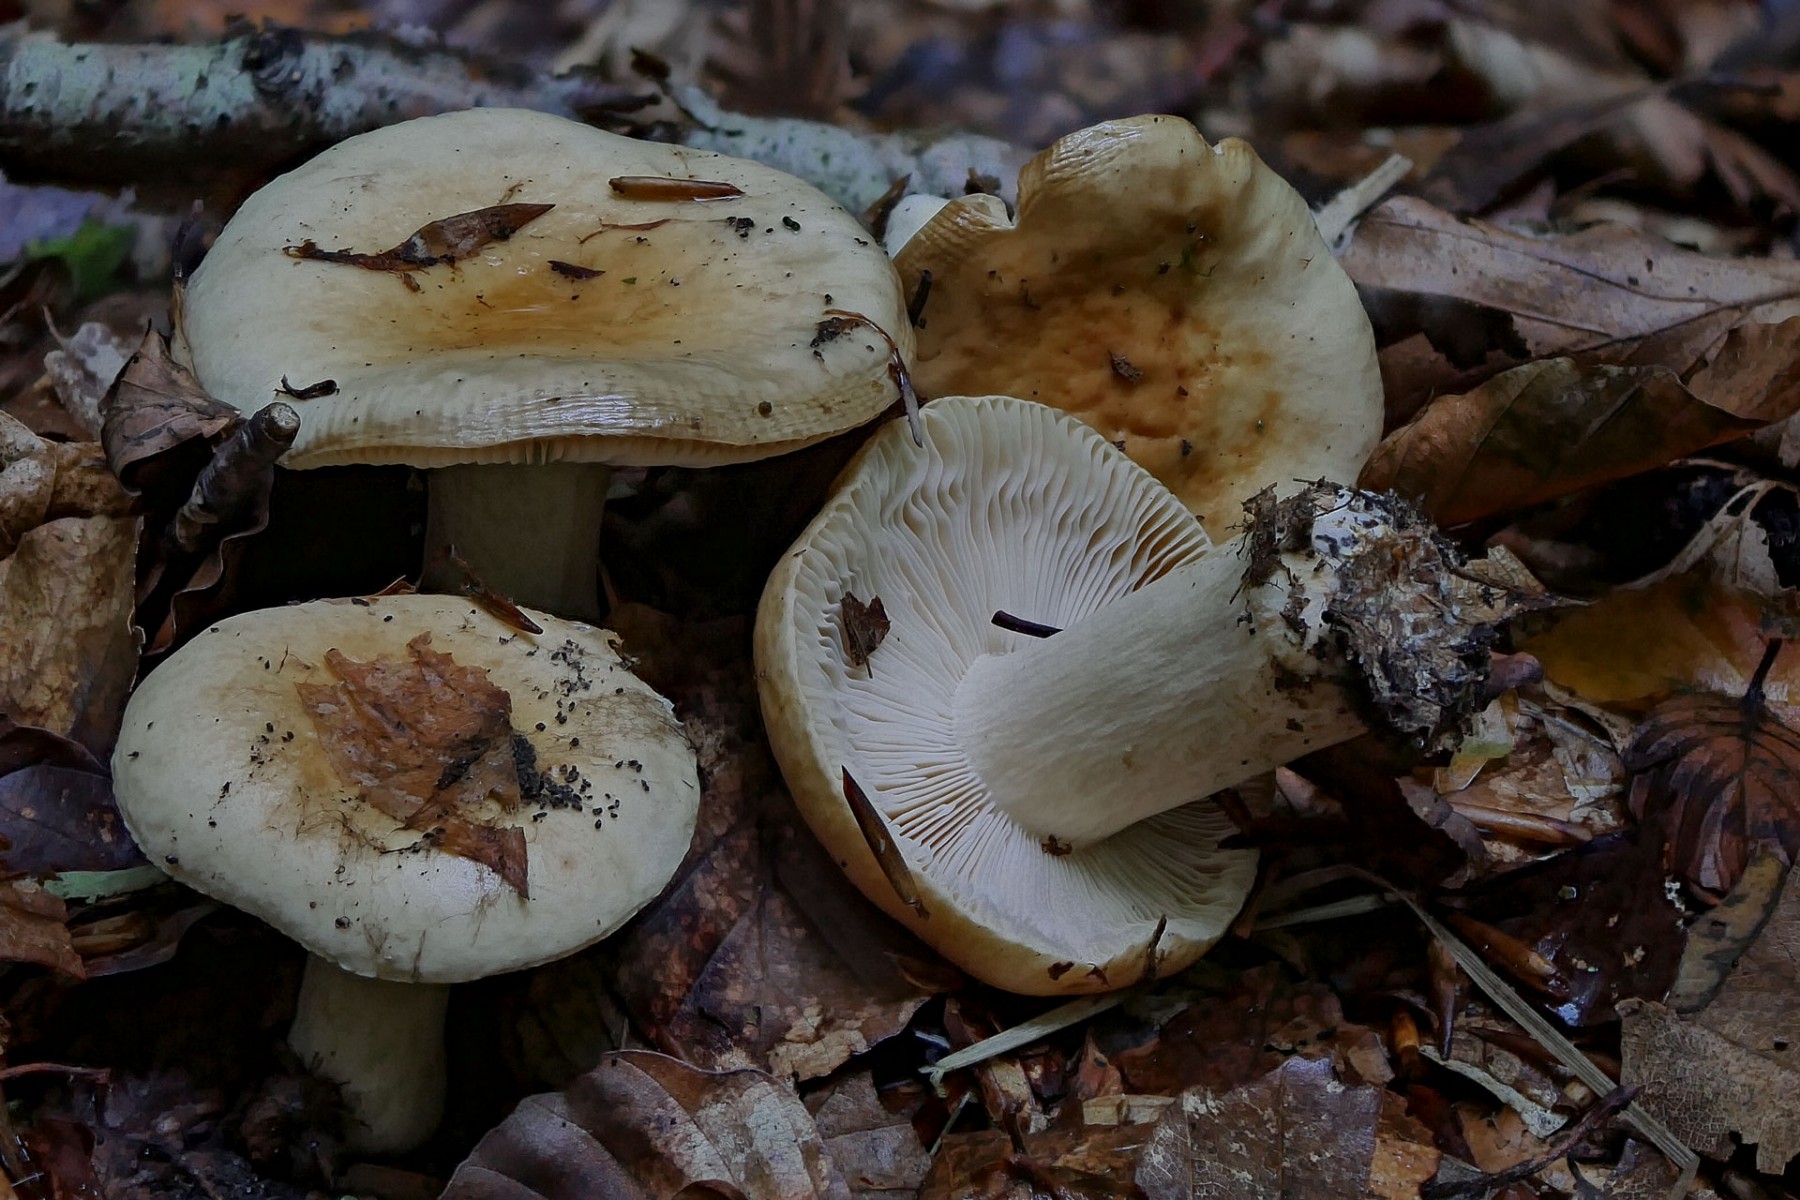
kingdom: Fungi
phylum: Basidiomycota
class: Agaricomycetes
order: Russulales
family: Russulaceae
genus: Russula
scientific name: Russula fellea
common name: galde-skørhat
